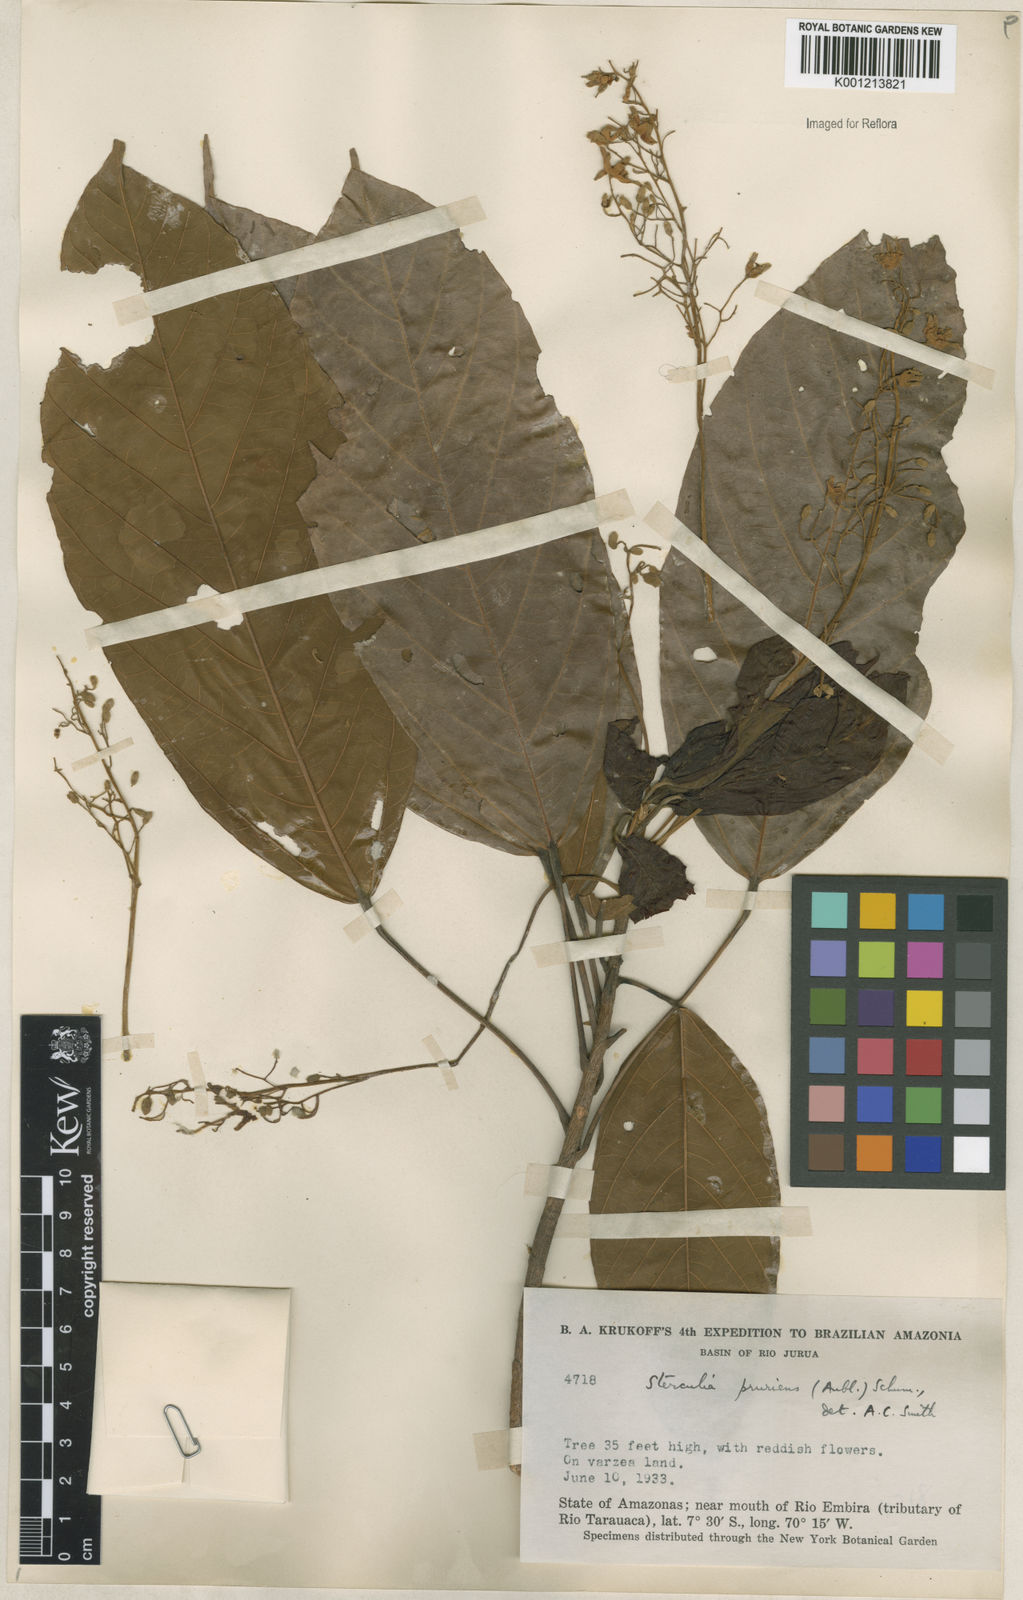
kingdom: Plantae
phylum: Tracheophyta
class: Magnoliopsida
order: Malvales
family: Malvaceae
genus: Sterculia
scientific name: Sterculia pruriens
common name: Grand mahot
